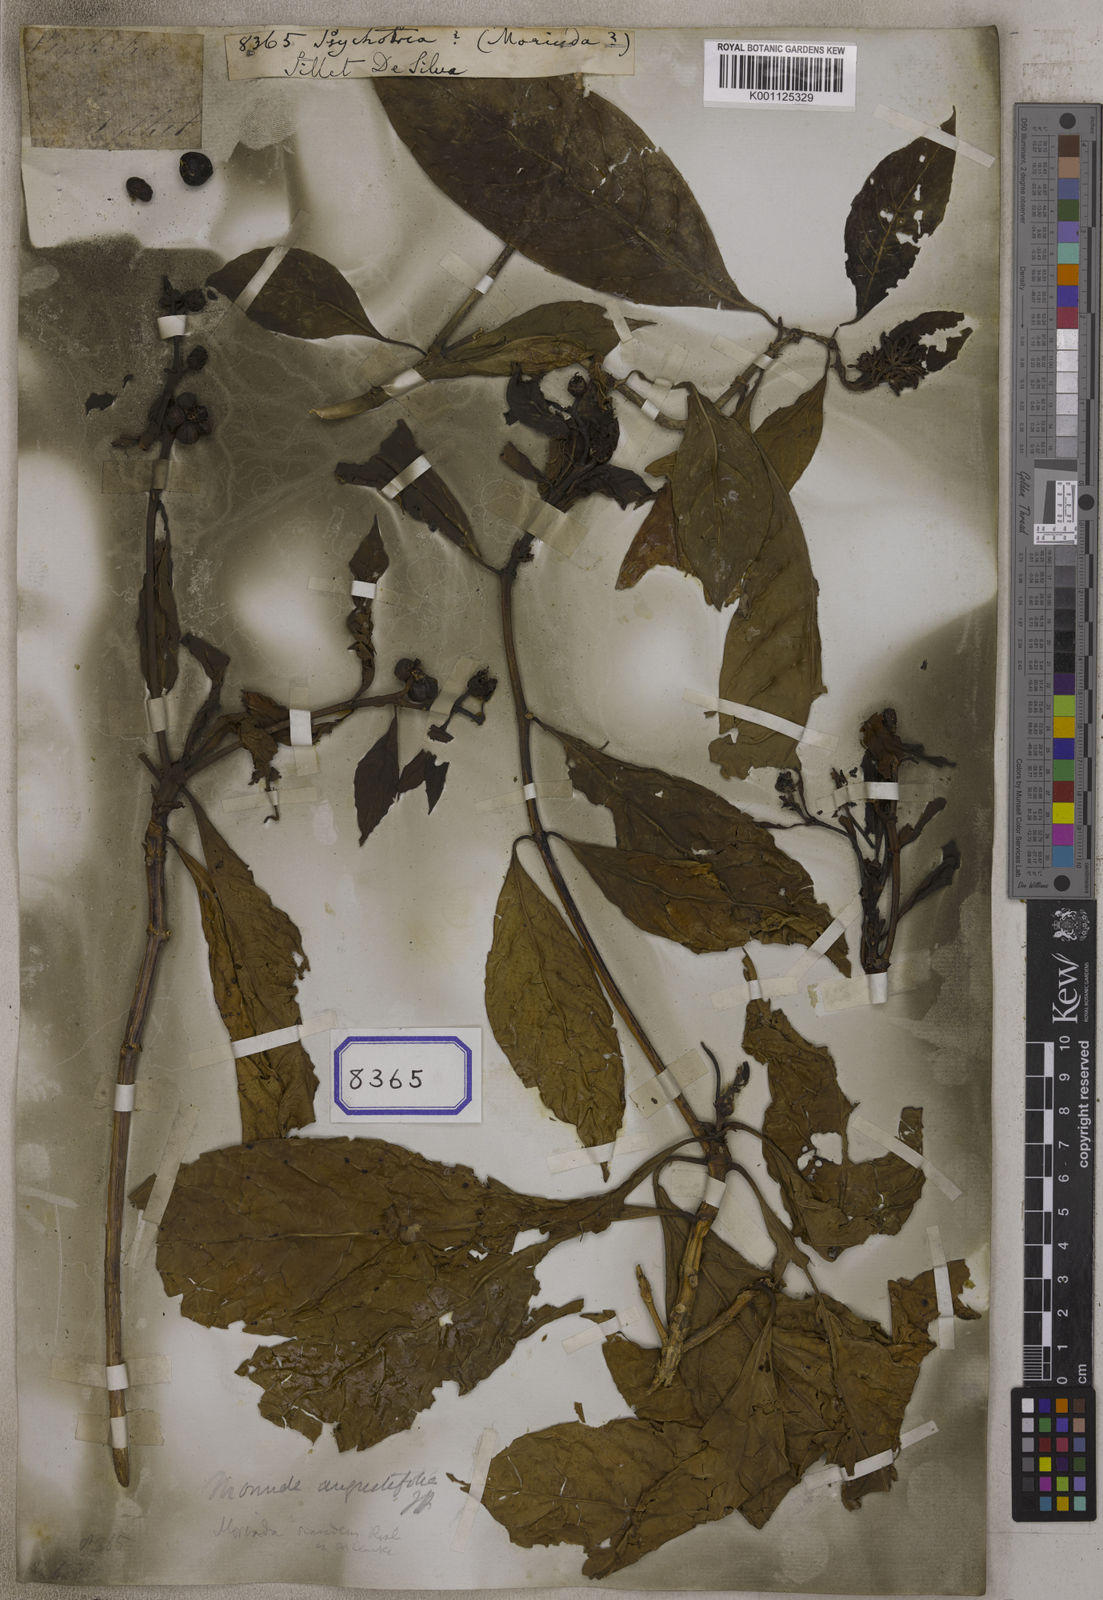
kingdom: Plantae
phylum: Tracheophyta
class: Magnoliopsida
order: Gentianales
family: Rubiaceae
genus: Psychotria
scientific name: Psychotria
